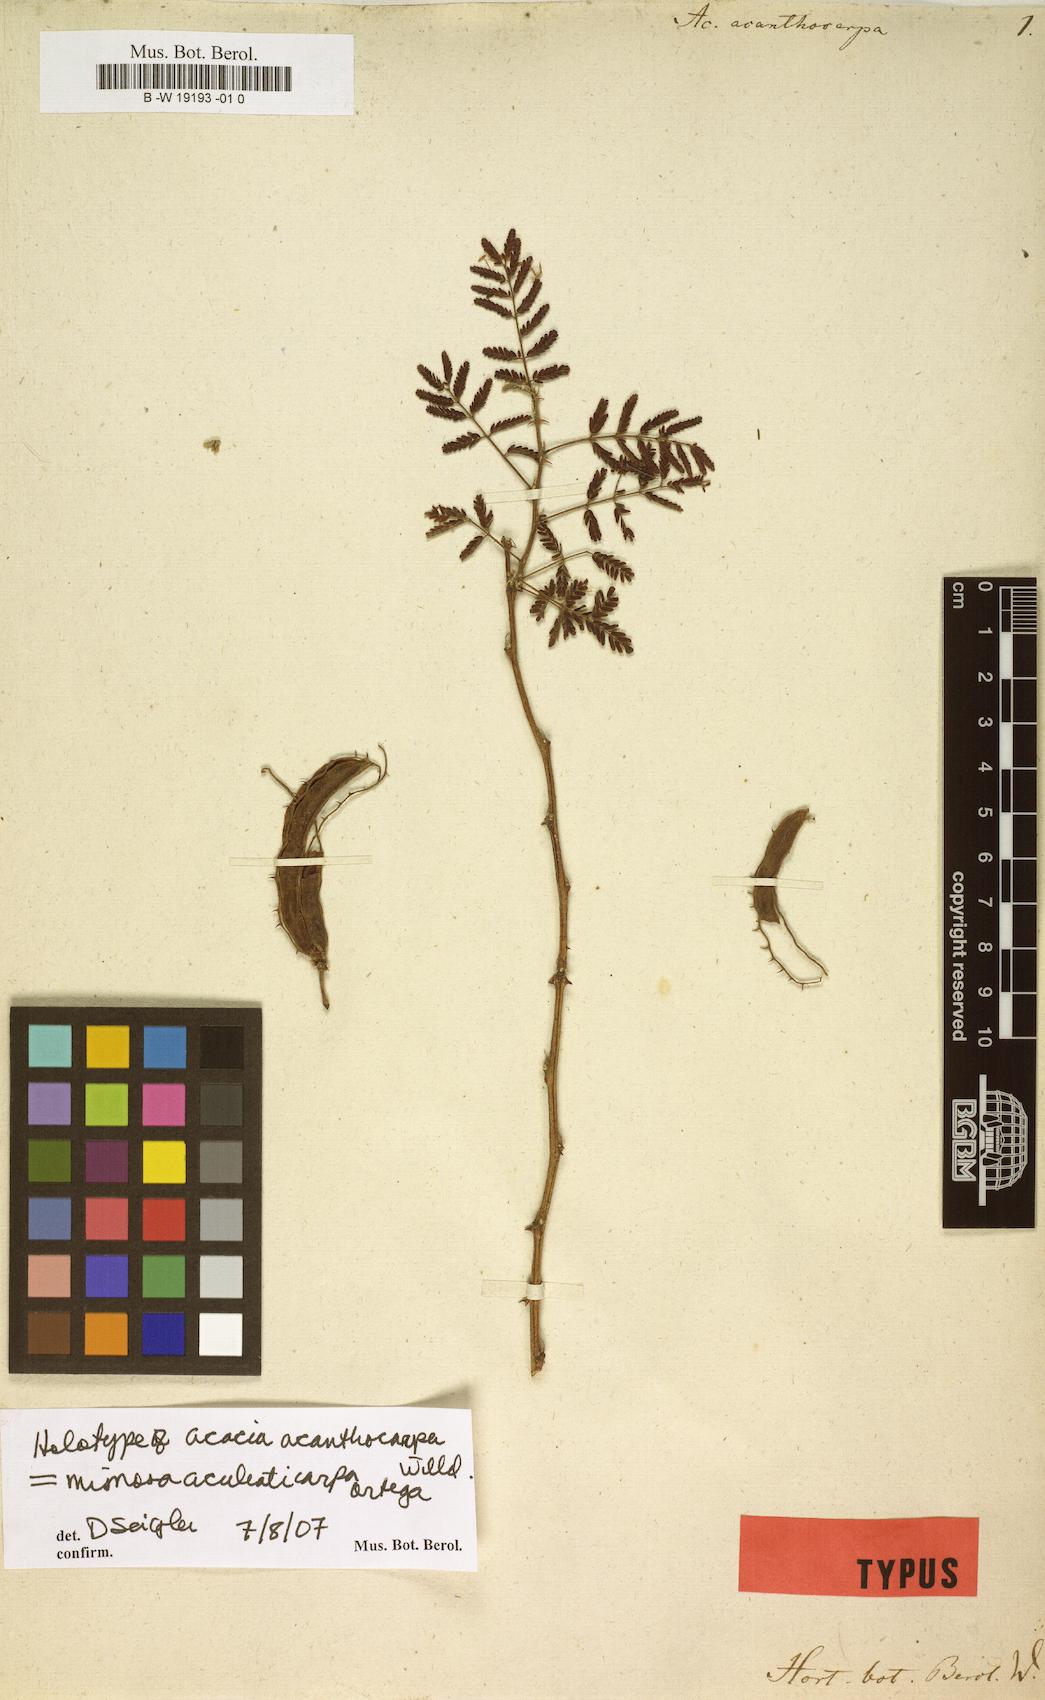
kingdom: Plantae
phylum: Tracheophyta
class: Magnoliopsida
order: Fabales
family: Fabaceae
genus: Mimosa
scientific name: Mimosa aculeaticarpa
